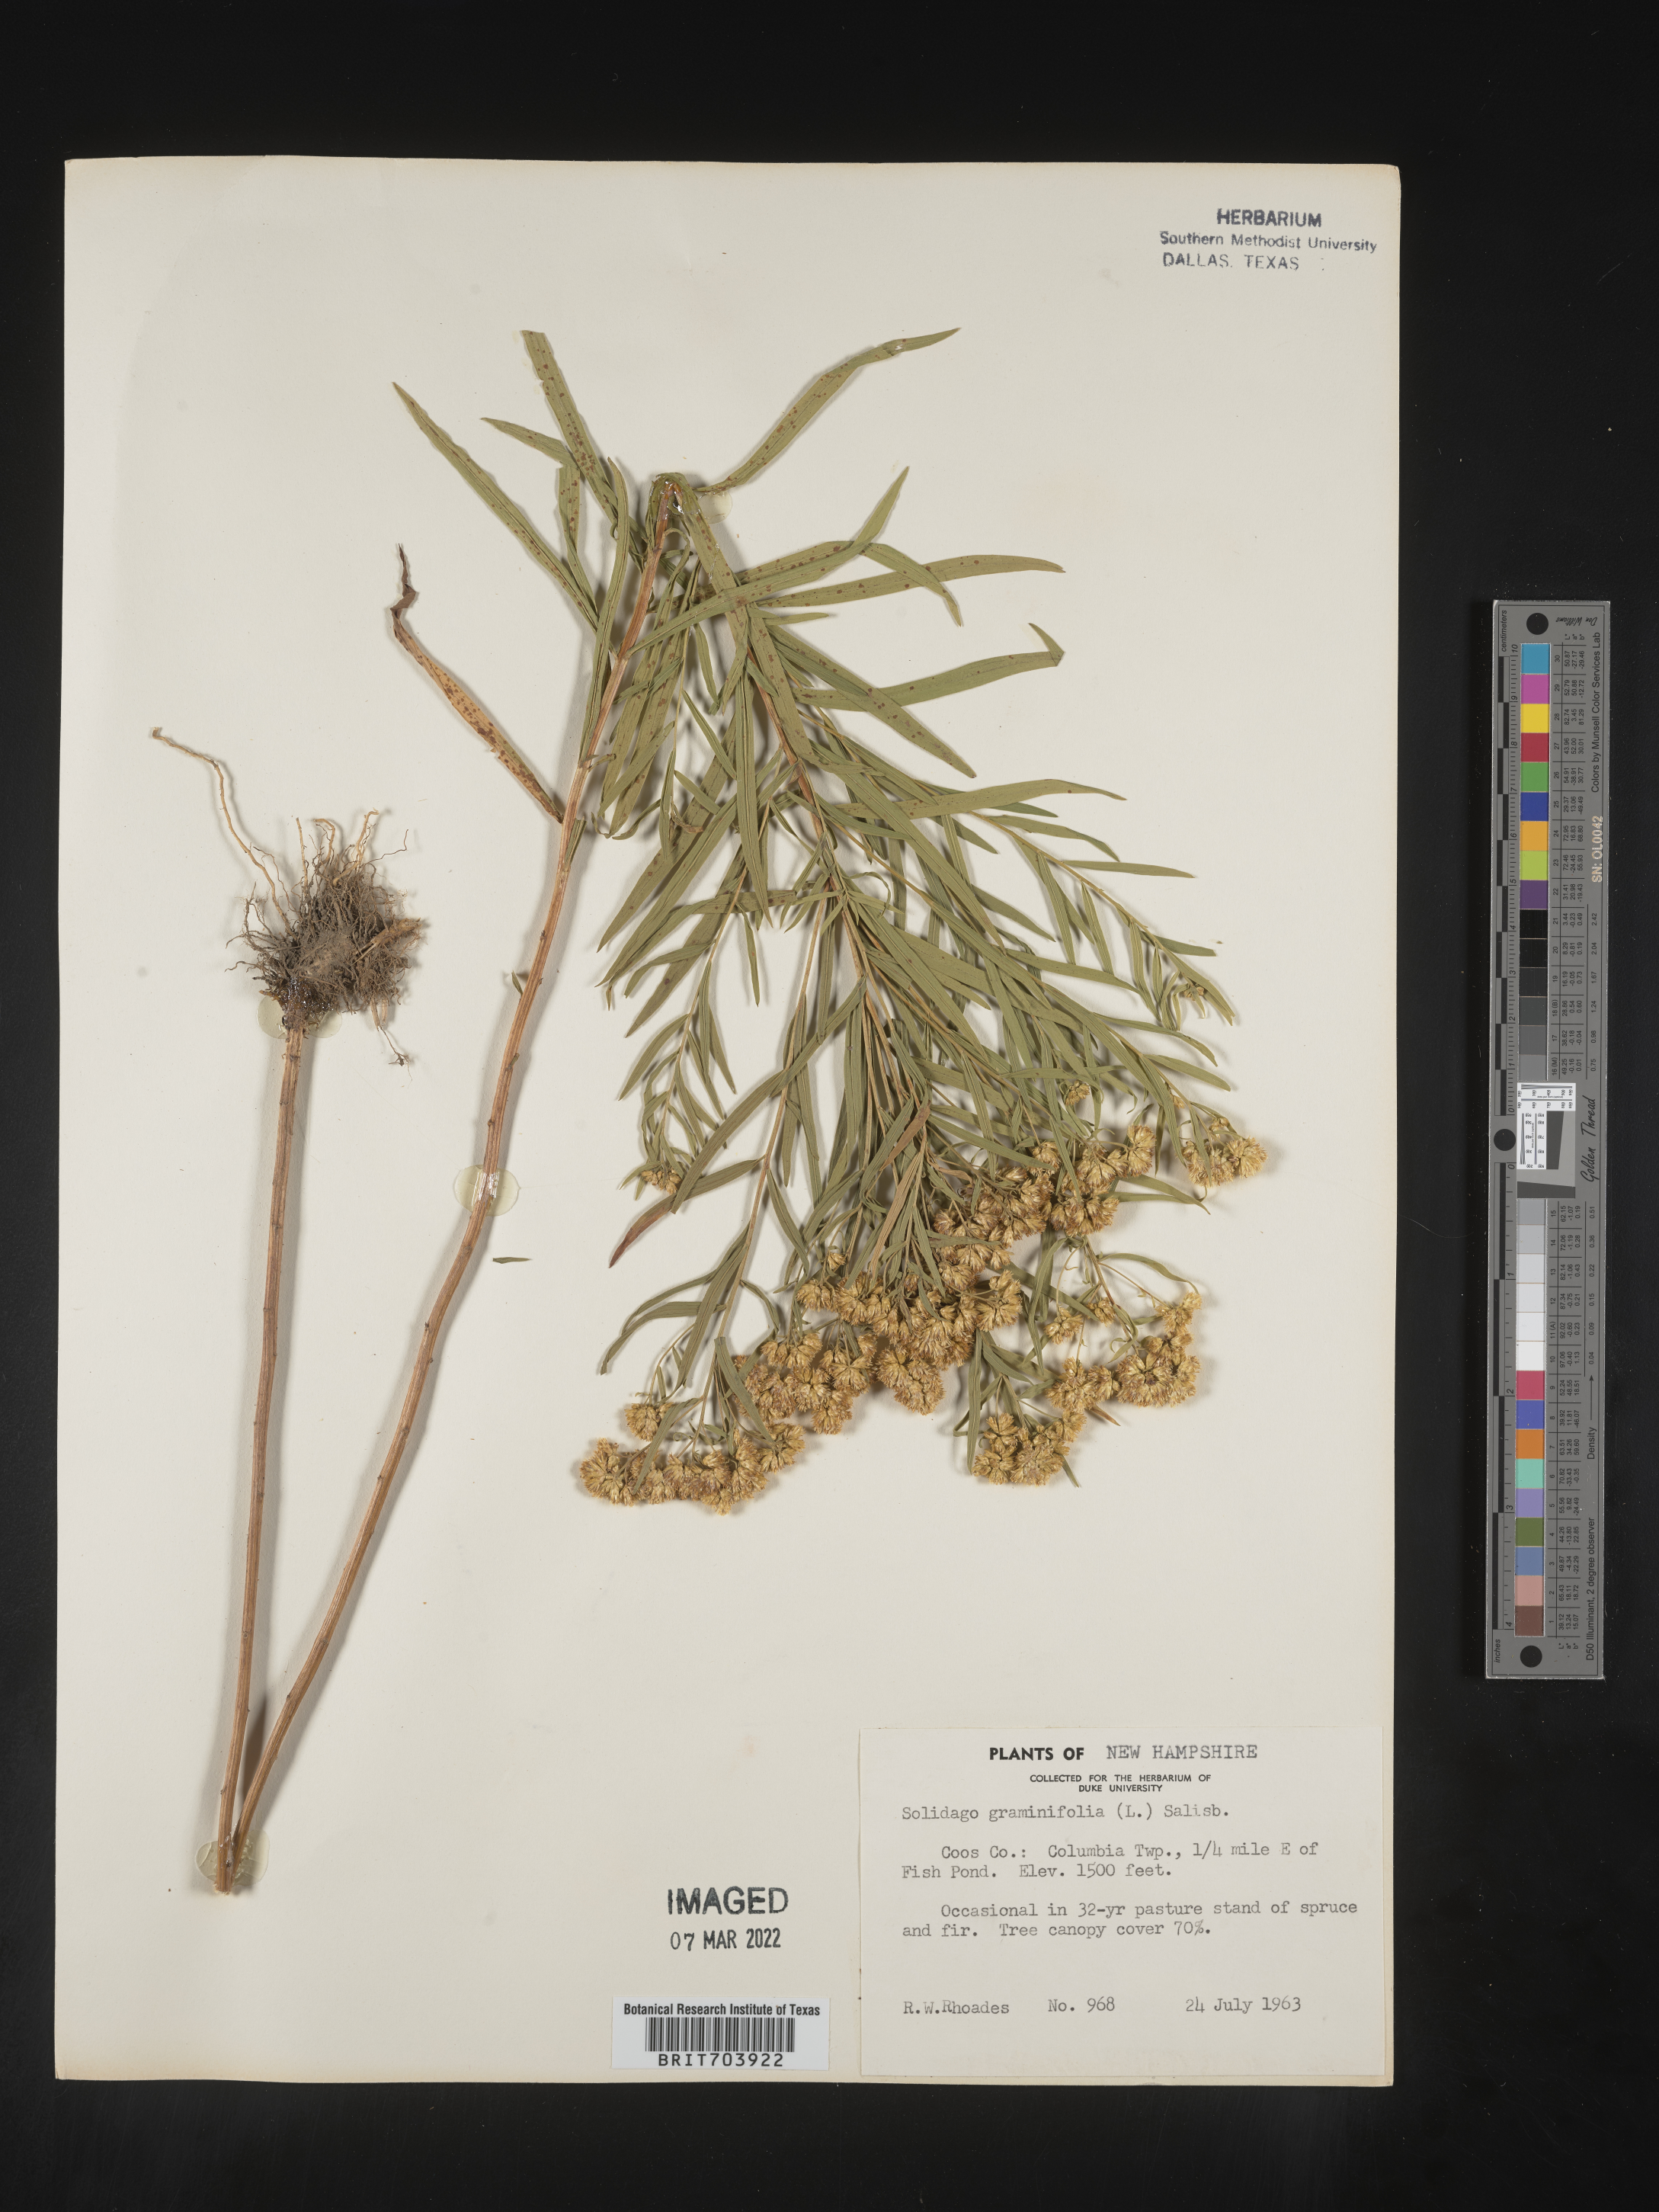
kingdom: Plantae
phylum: Tracheophyta
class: Magnoliopsida
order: Asterales
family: Asteraceae
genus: Euthamia
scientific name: Euthamia graminifolia
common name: Common goldentop
